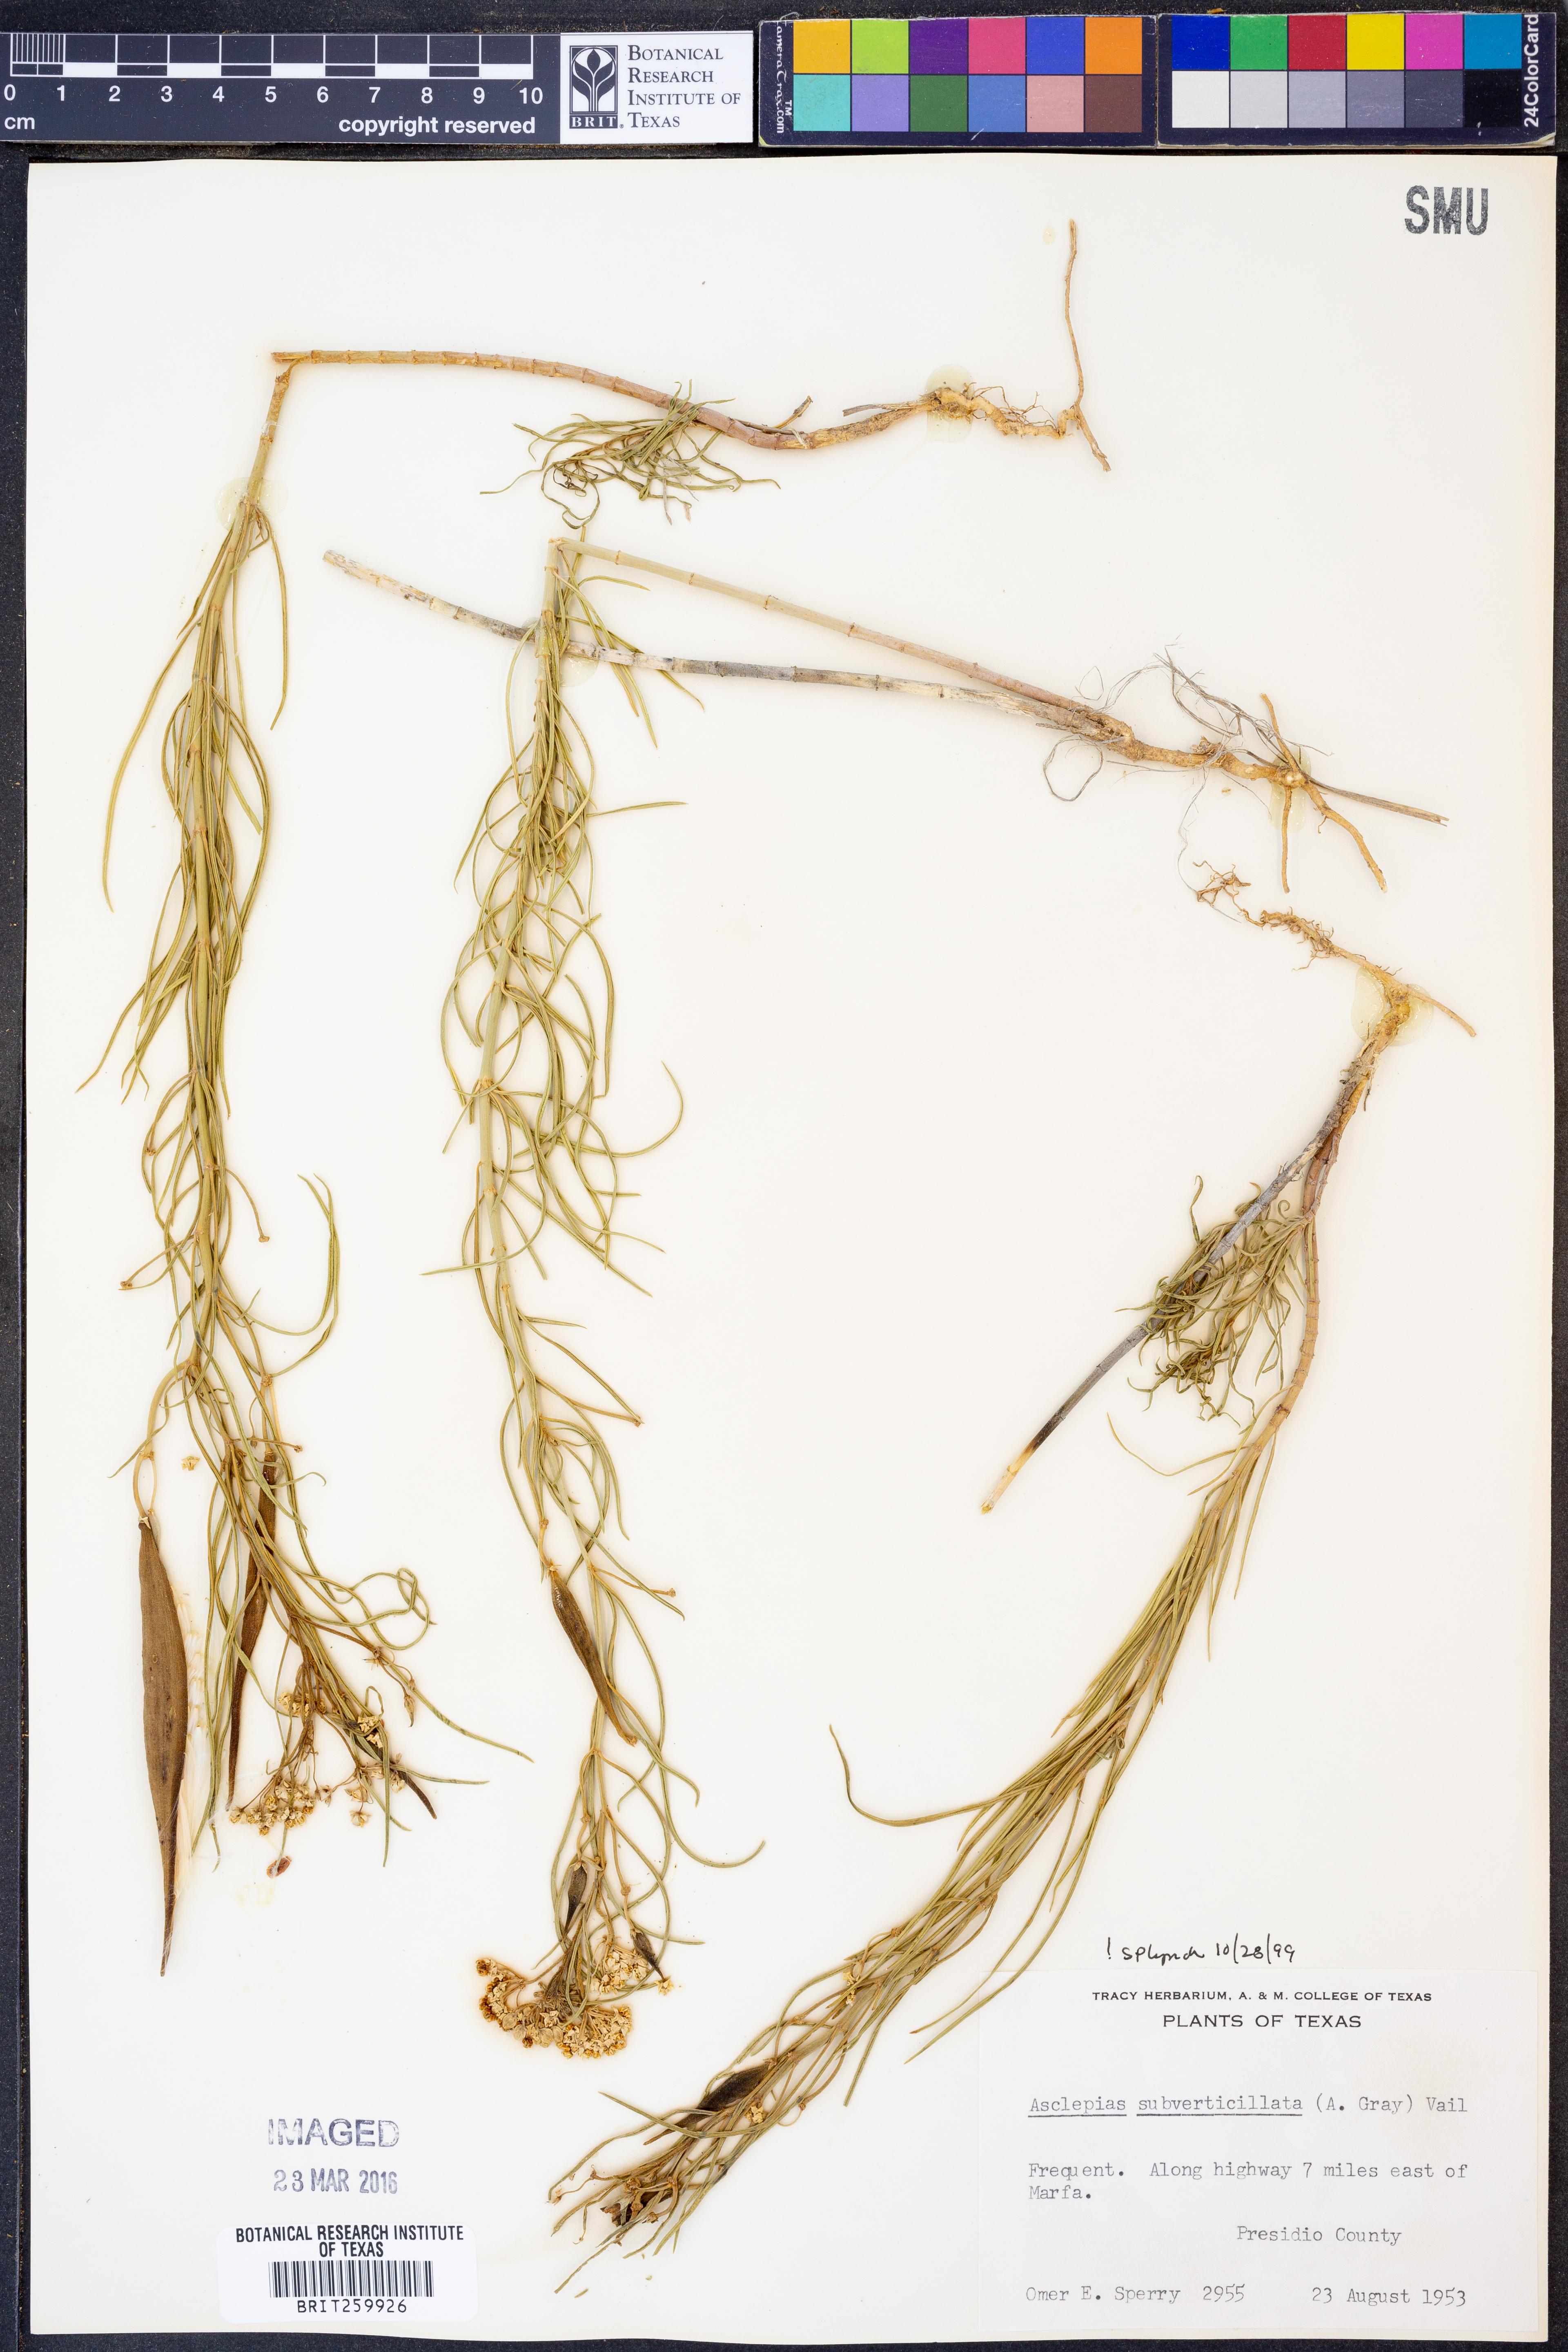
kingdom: Plantae
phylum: Tracheophyta
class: Magnoliopsida
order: Gentianales
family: Apocynaceae
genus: Asclepias
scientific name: Asclepias subverticillata
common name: Horsetail milkweed
